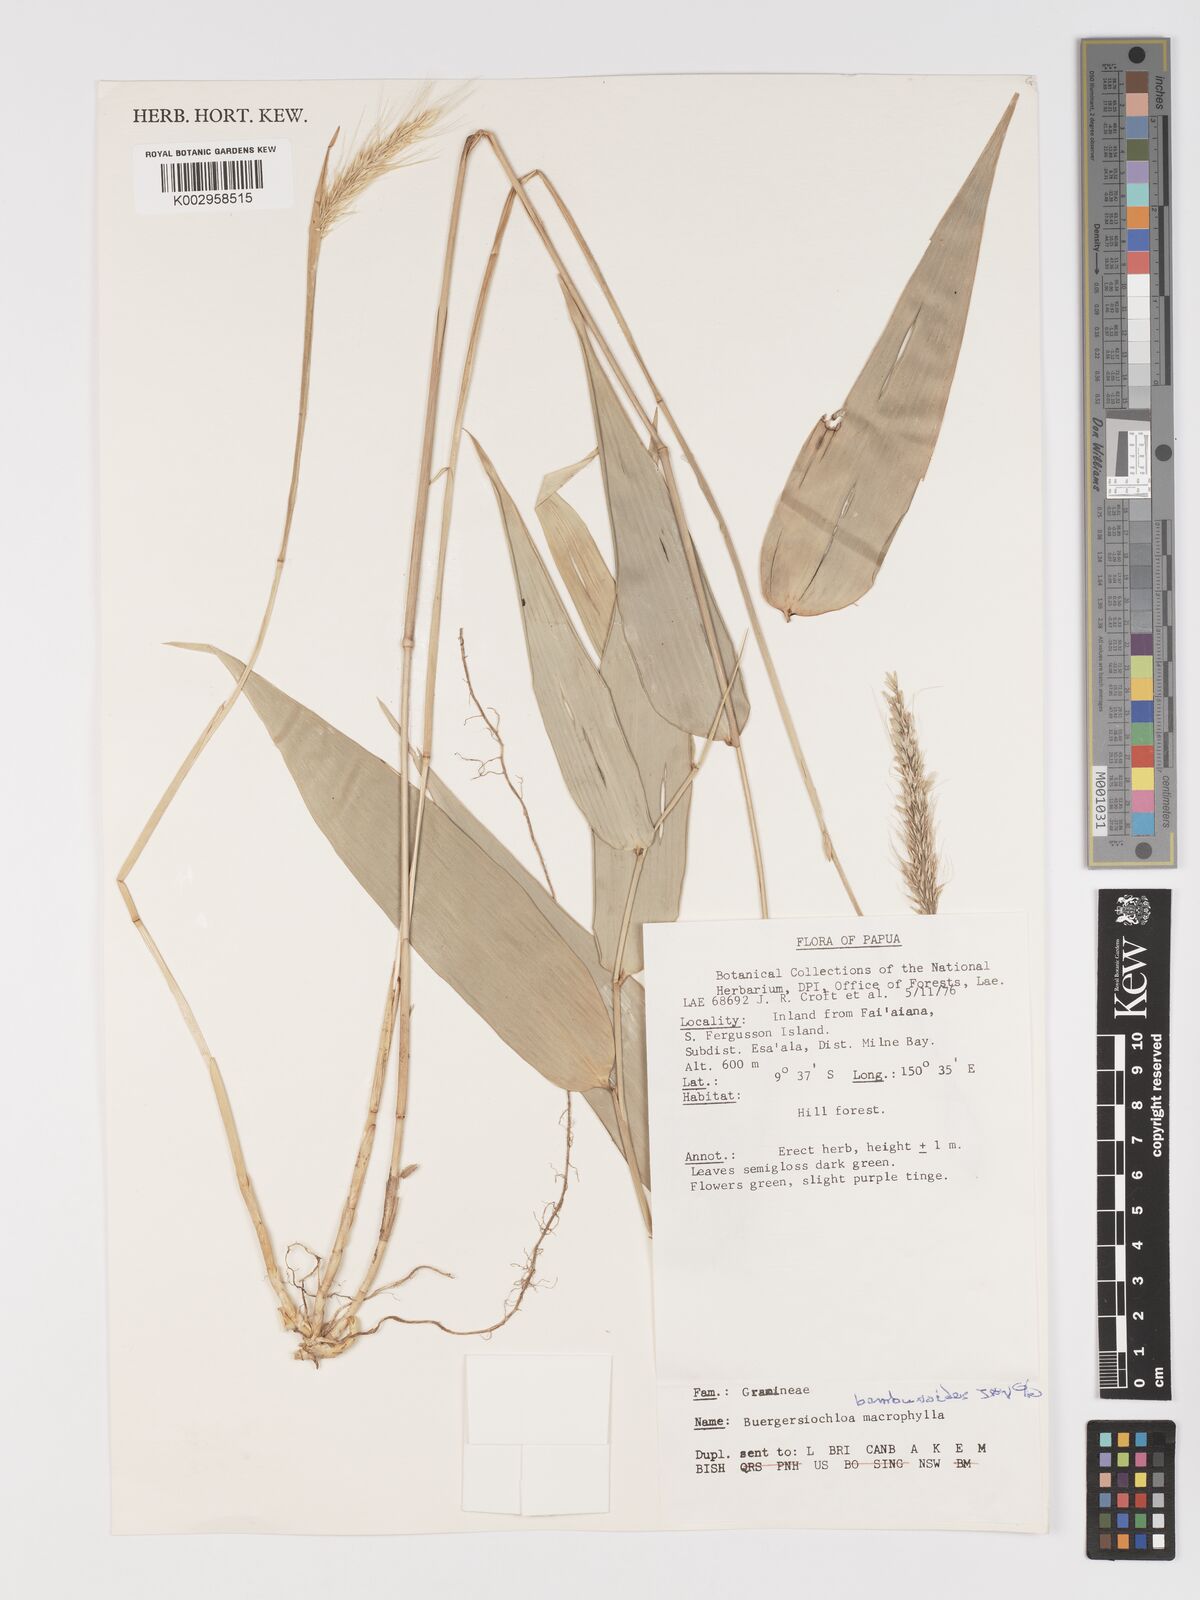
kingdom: Plantae
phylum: Tracheophyta
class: Liliopsida
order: Poales
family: Poaceae
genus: Buergersiochloa
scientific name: Buergersiochloa bambusoides
